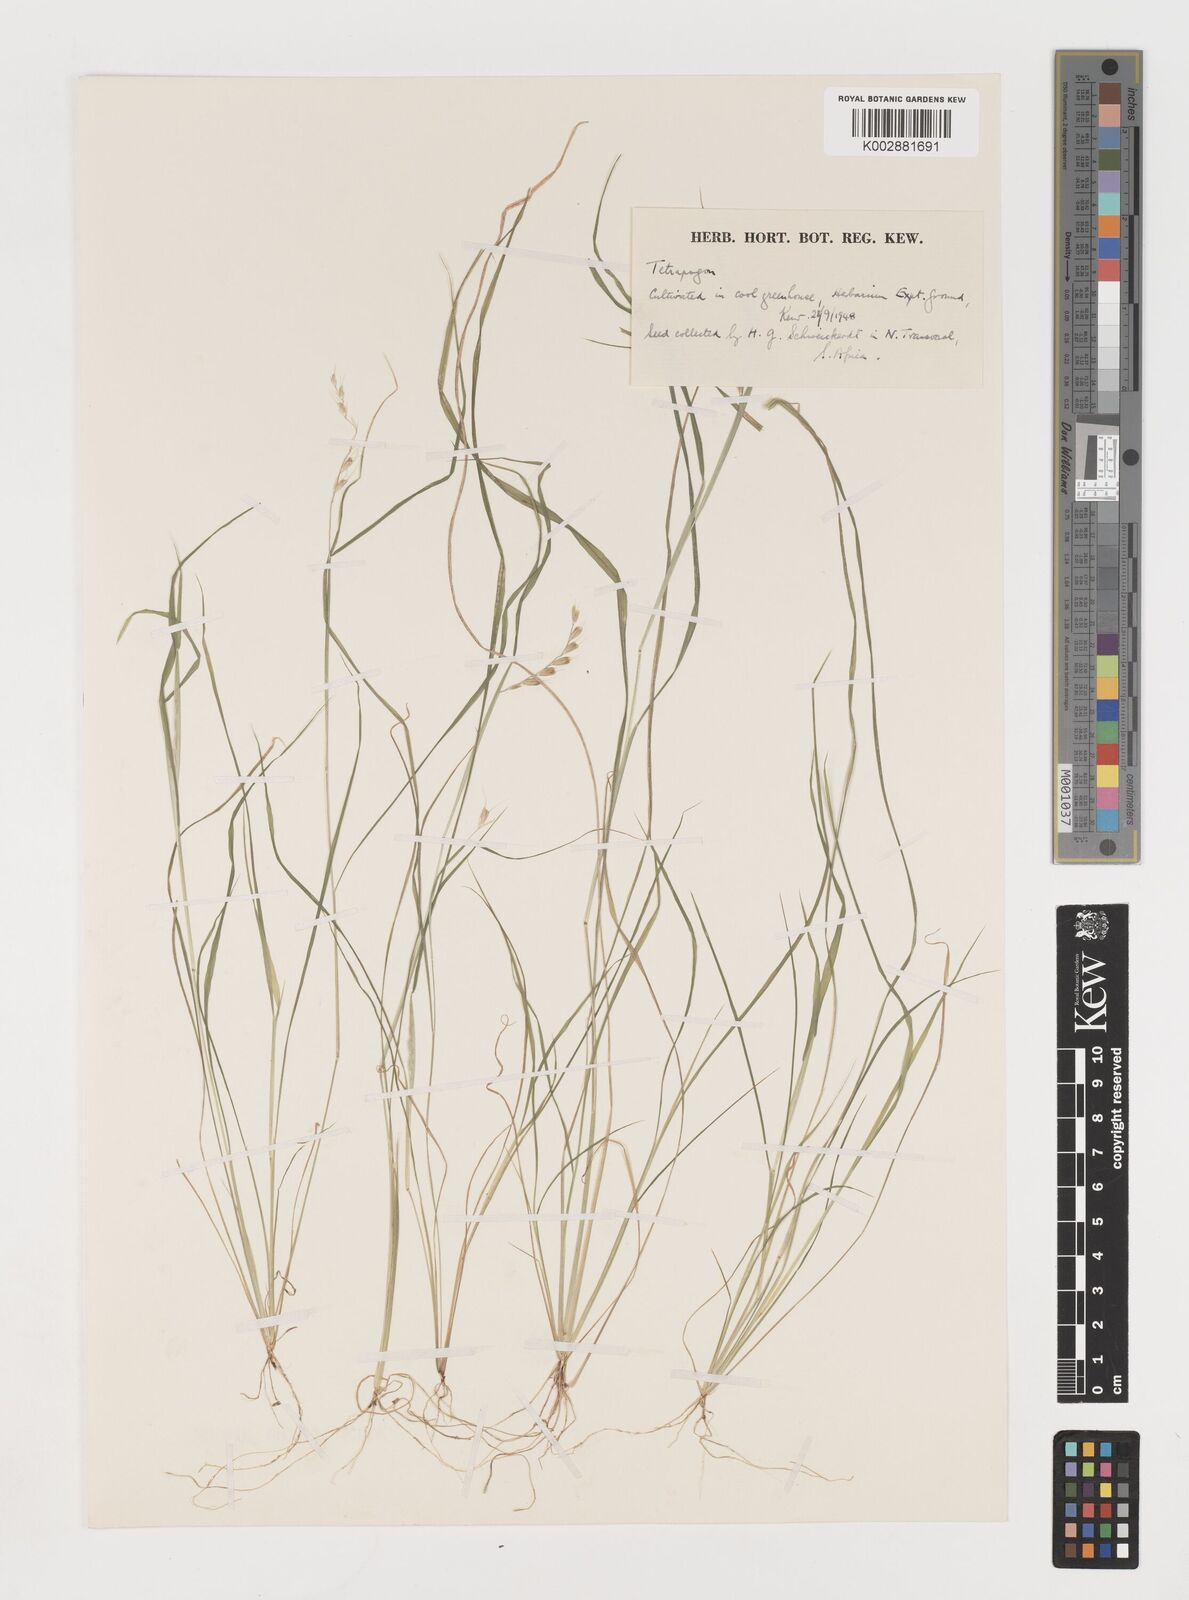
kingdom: Plantae
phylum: Tracheophyta
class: Liliopsida
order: Poales
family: Poaceae
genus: Tetrapogon
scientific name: Tetrapogon tenellus
